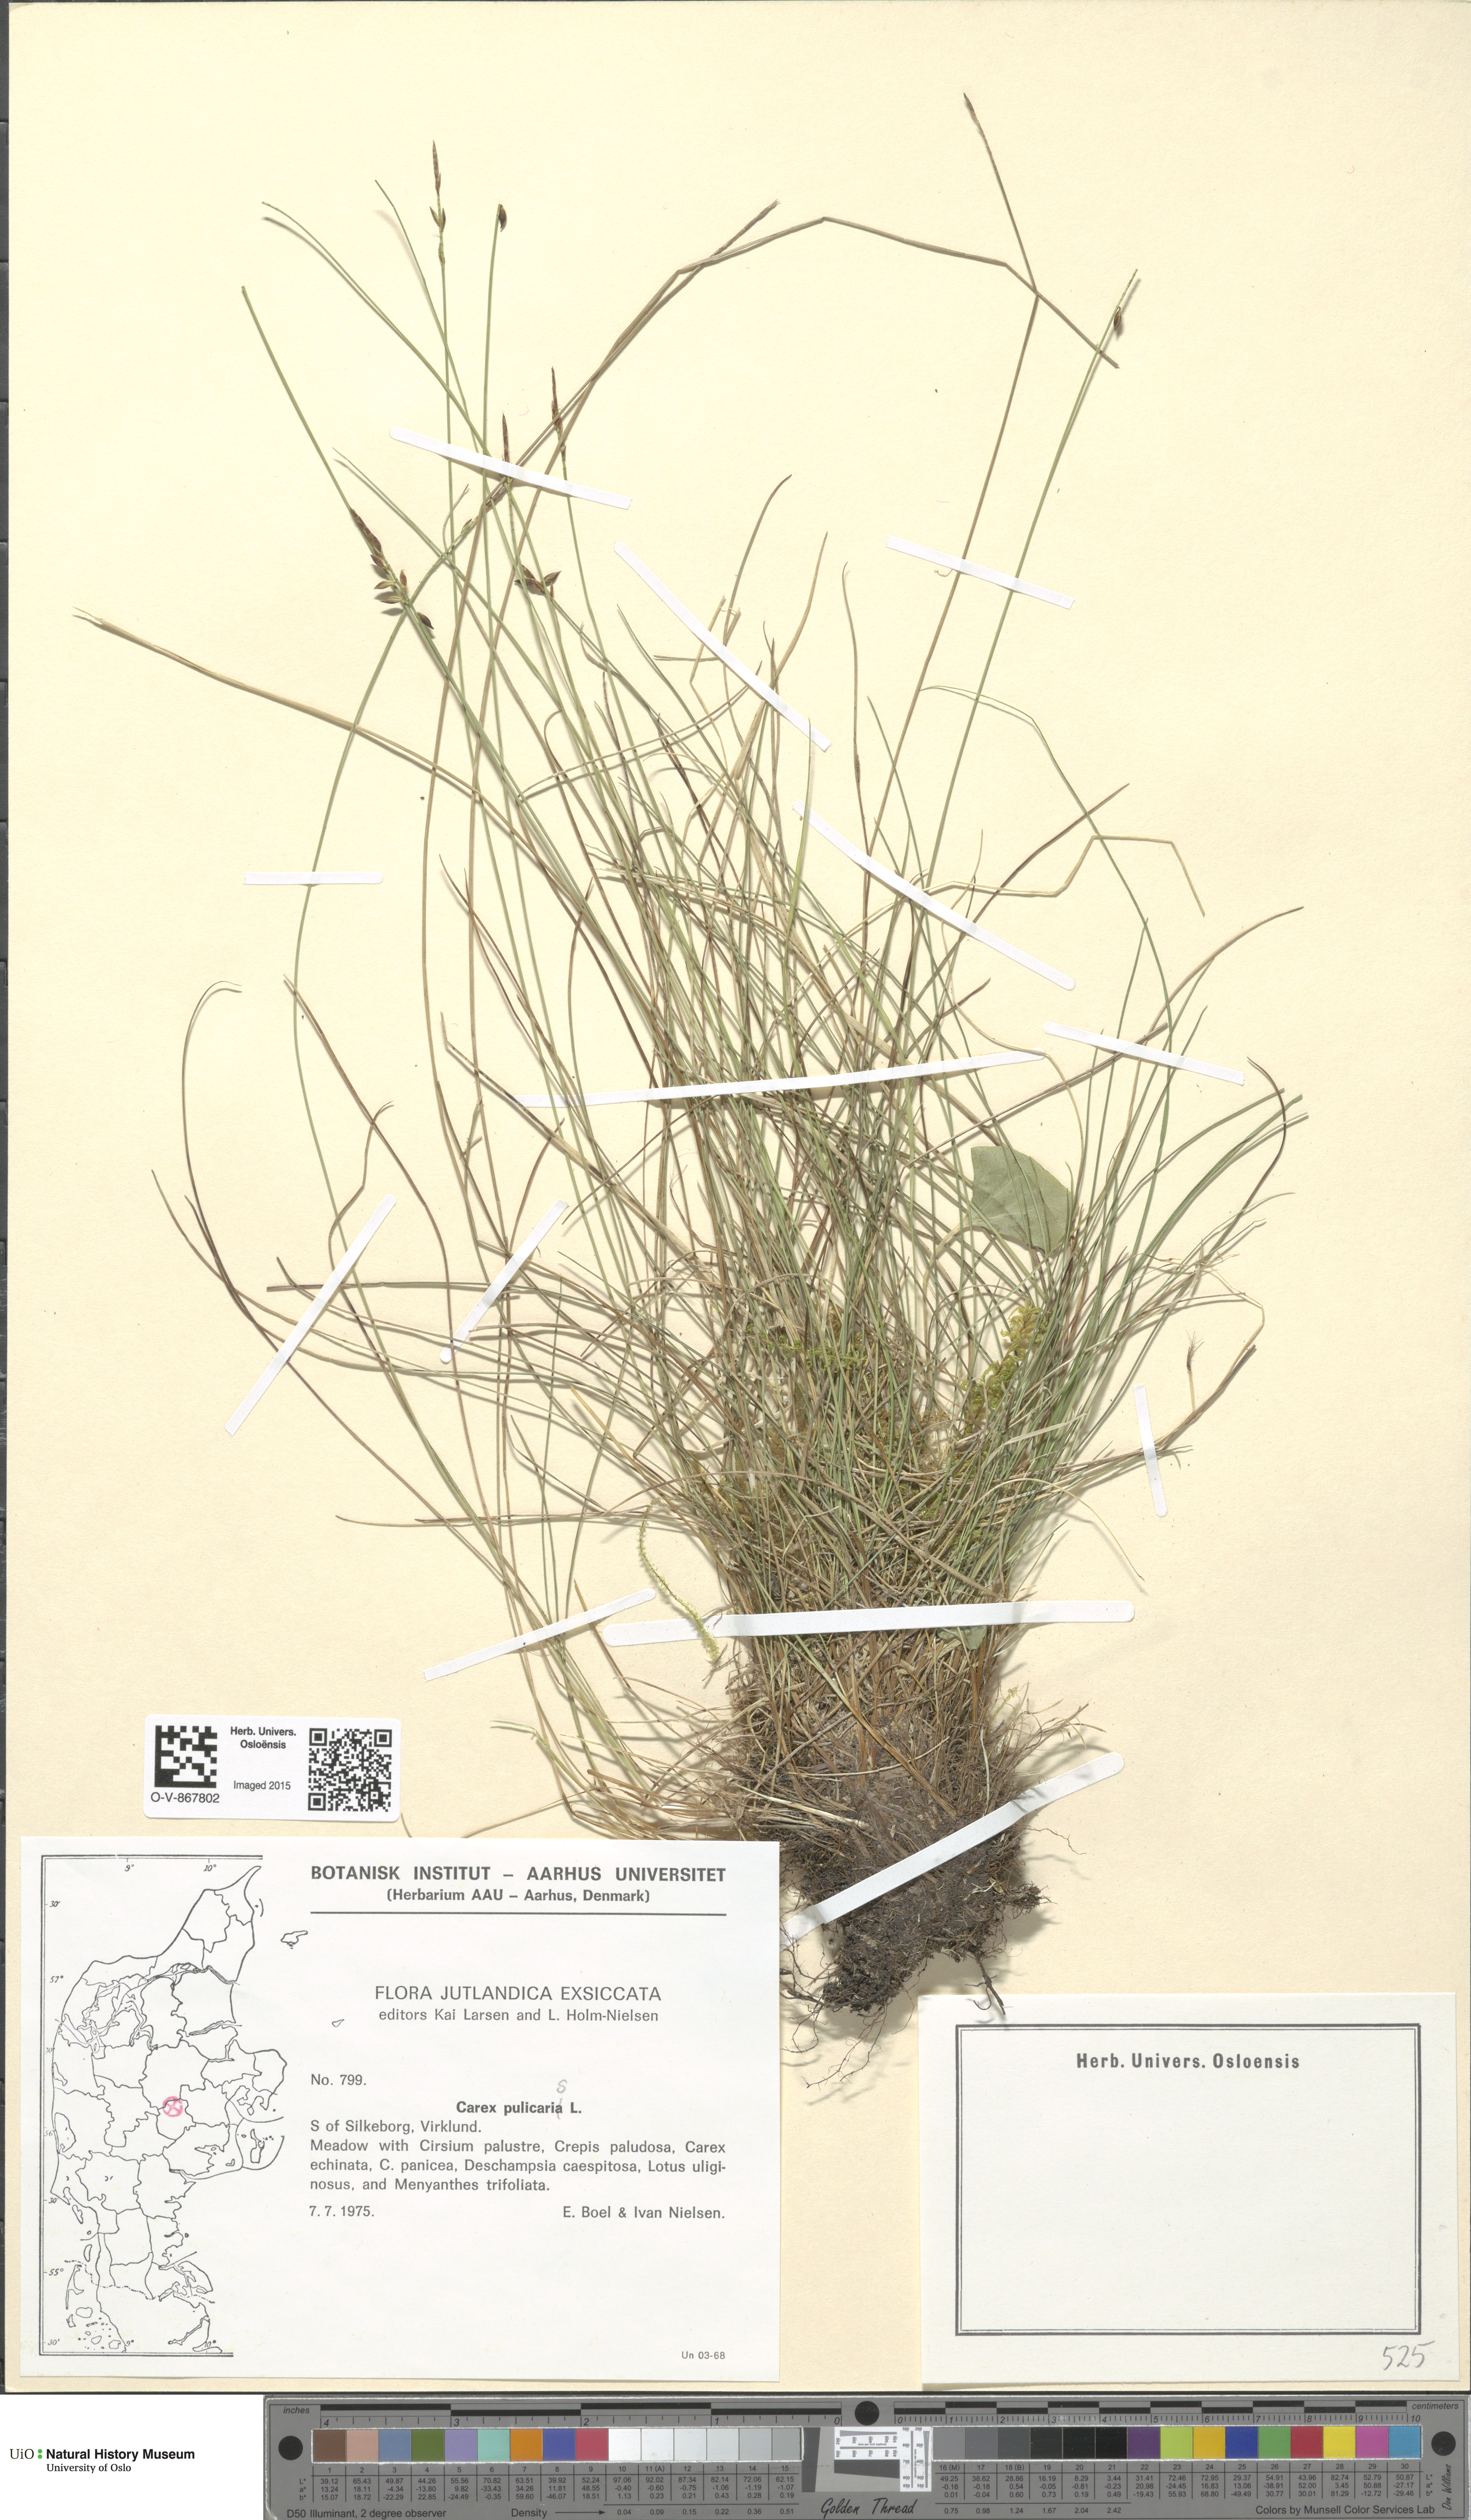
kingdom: Plantae
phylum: Tracheophyta
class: Liliopsida
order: Poales
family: Cyperaceae
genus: Carex
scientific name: Carex pulicaris
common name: Flea sedge
